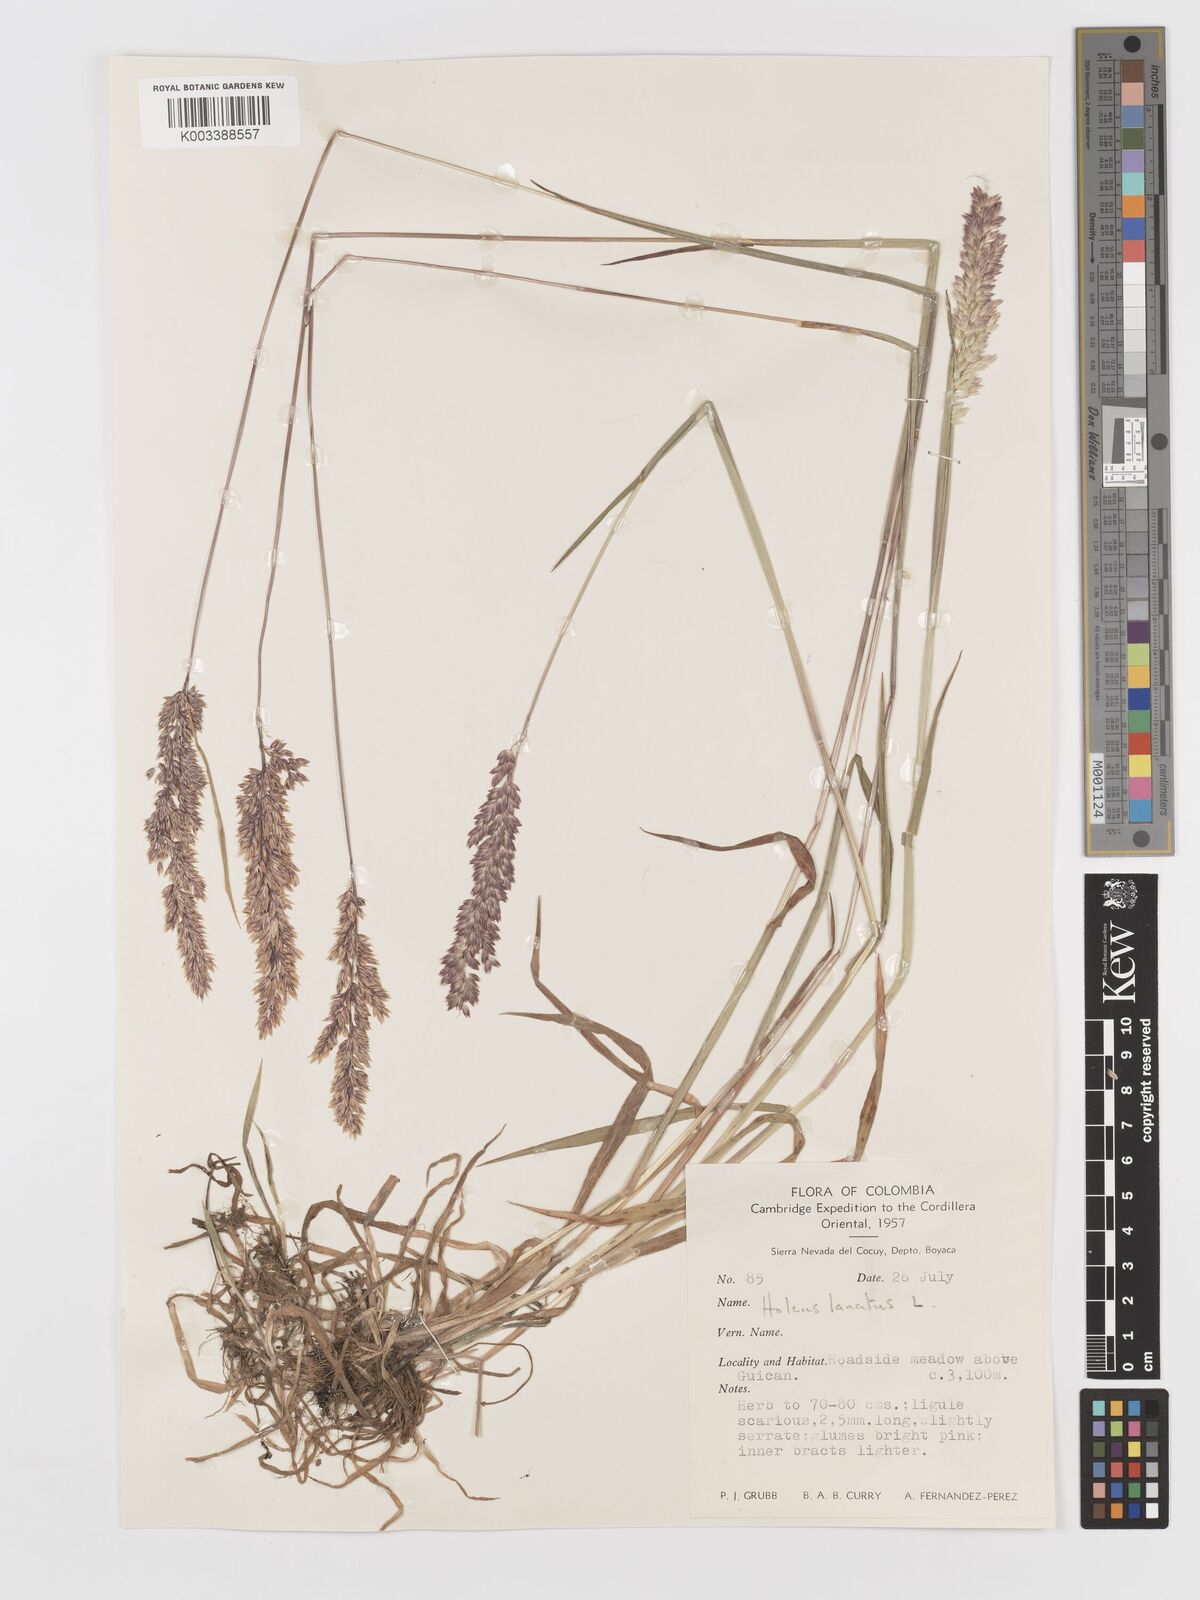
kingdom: Plantae
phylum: Tracheophyta
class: Liliopsida
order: Poales
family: Poaceae
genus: Holcus
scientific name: Holcus lanatus
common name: Yorkshire-fog
